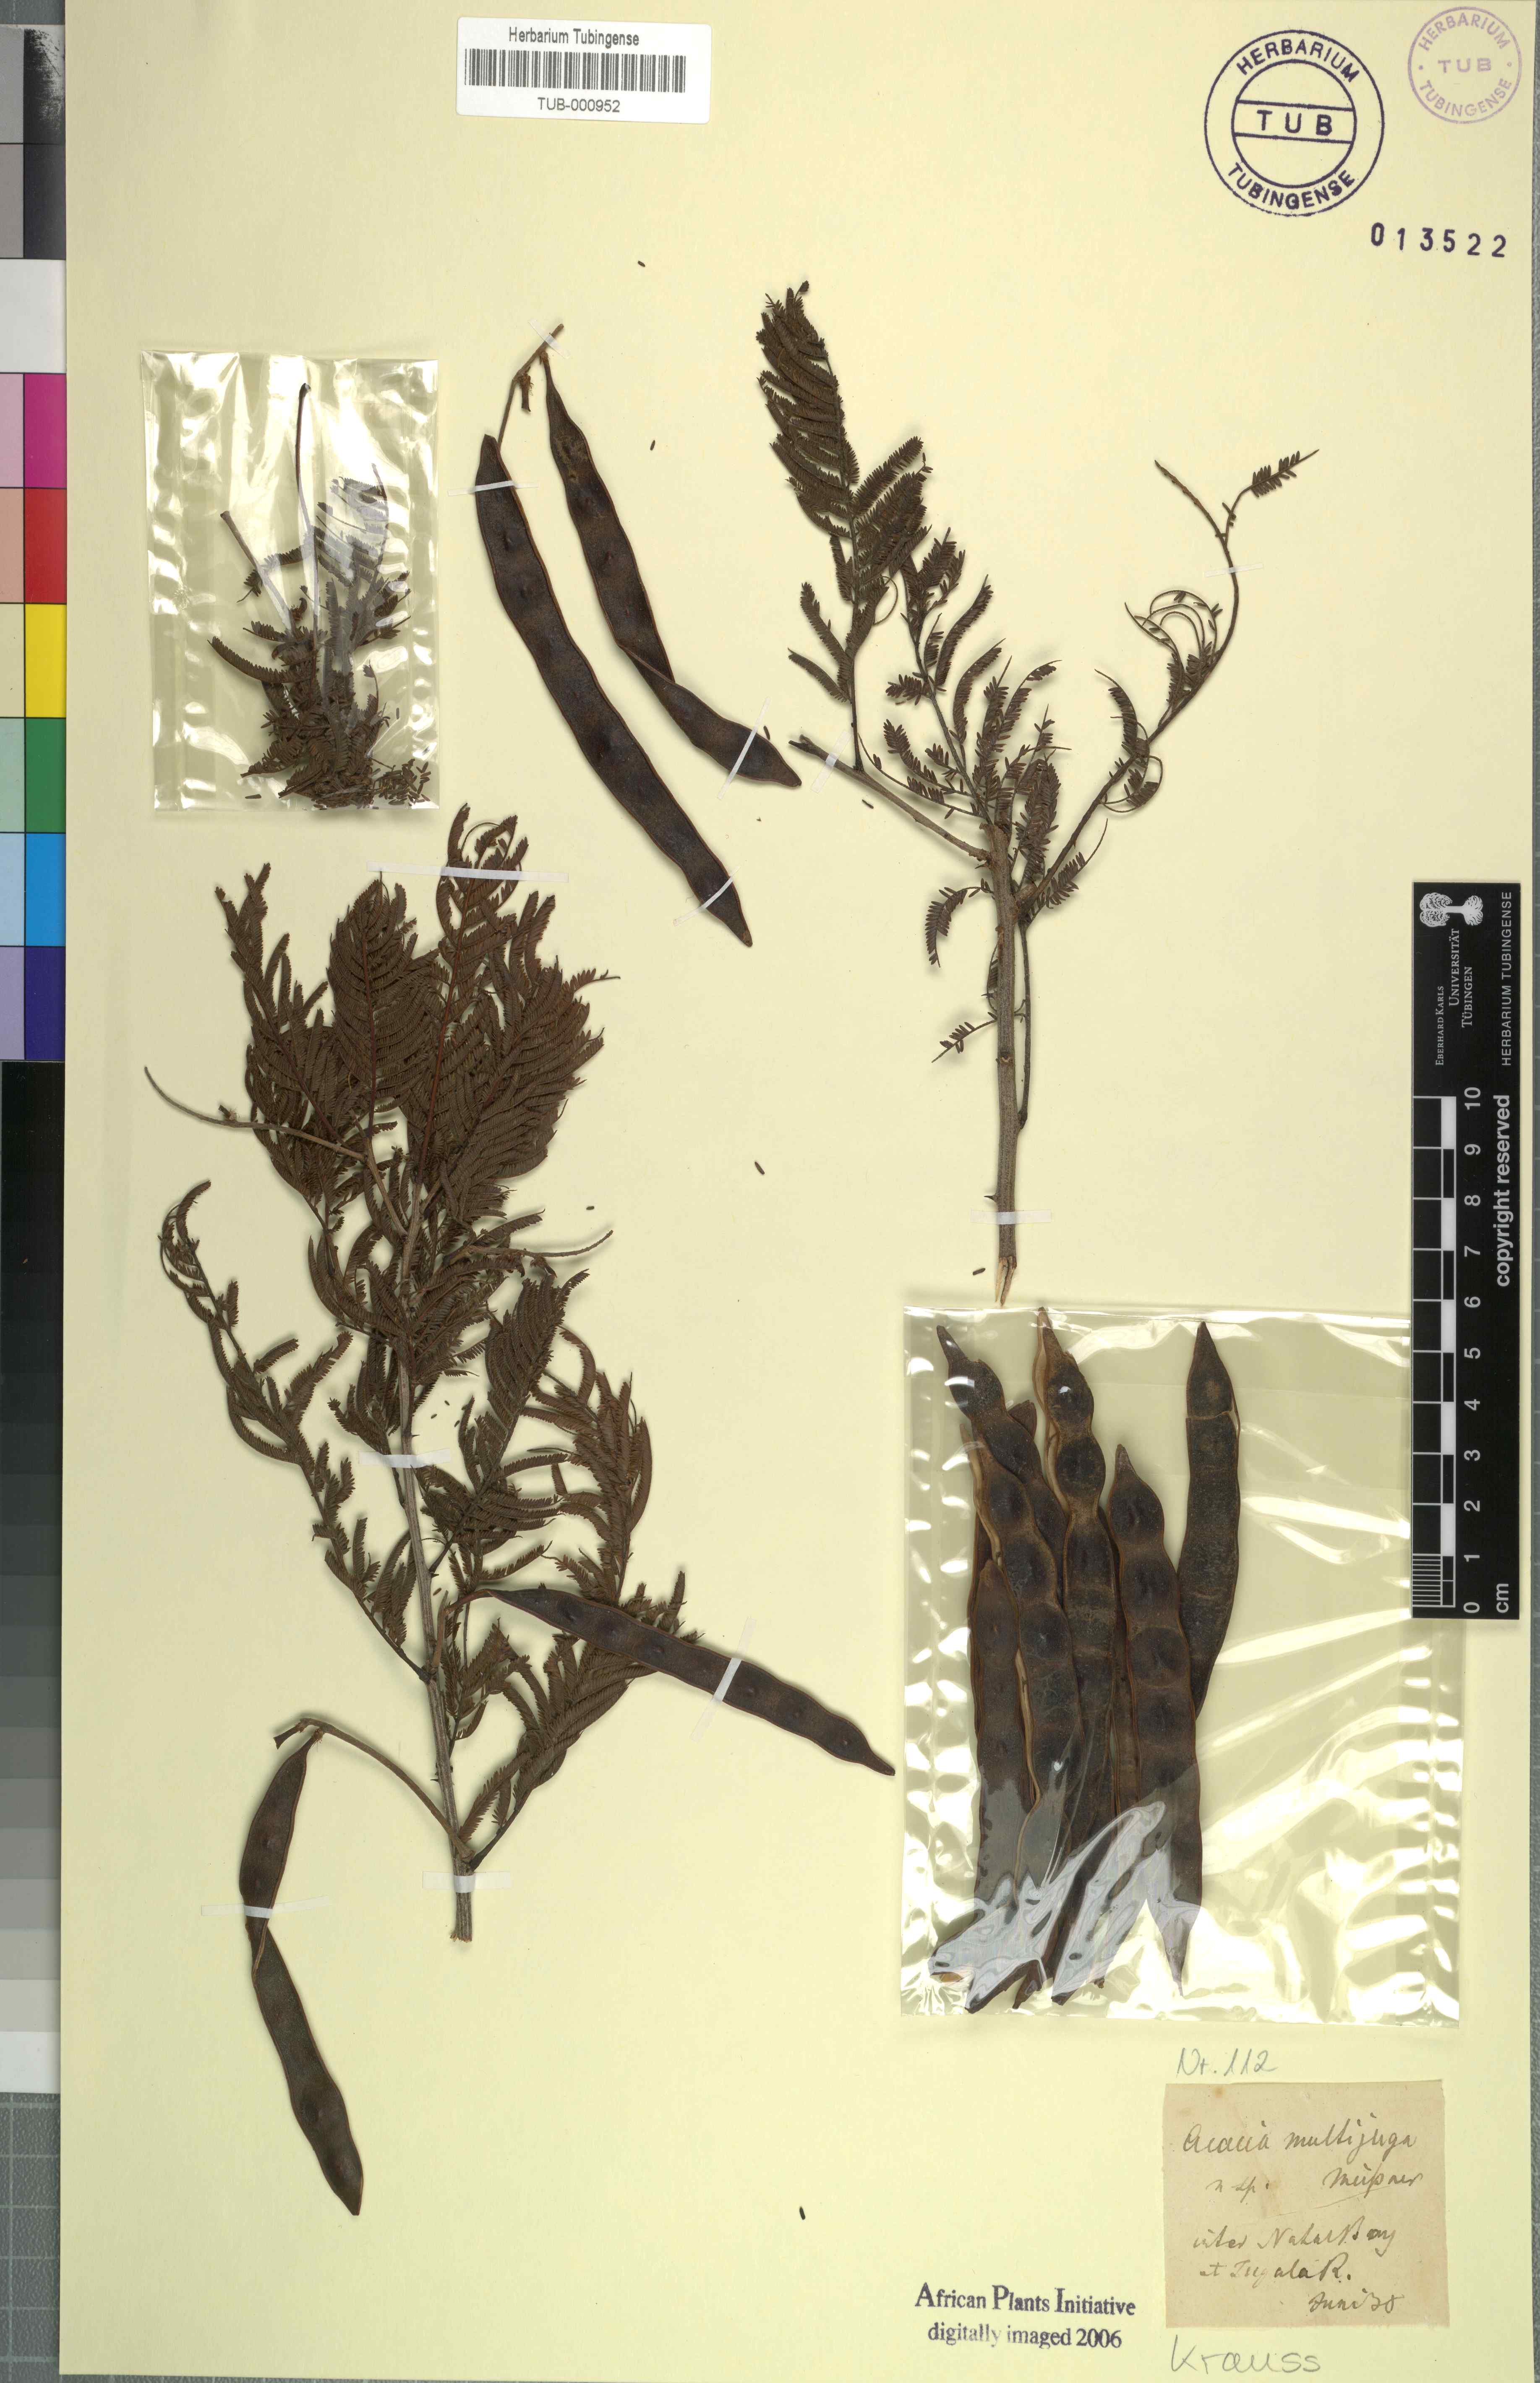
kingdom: Plantae
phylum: Tracheophyta
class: Magnoliopsida
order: Fabales
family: Fabaceae
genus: Senegalia
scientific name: Senegalia caffra
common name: Cat thorn
